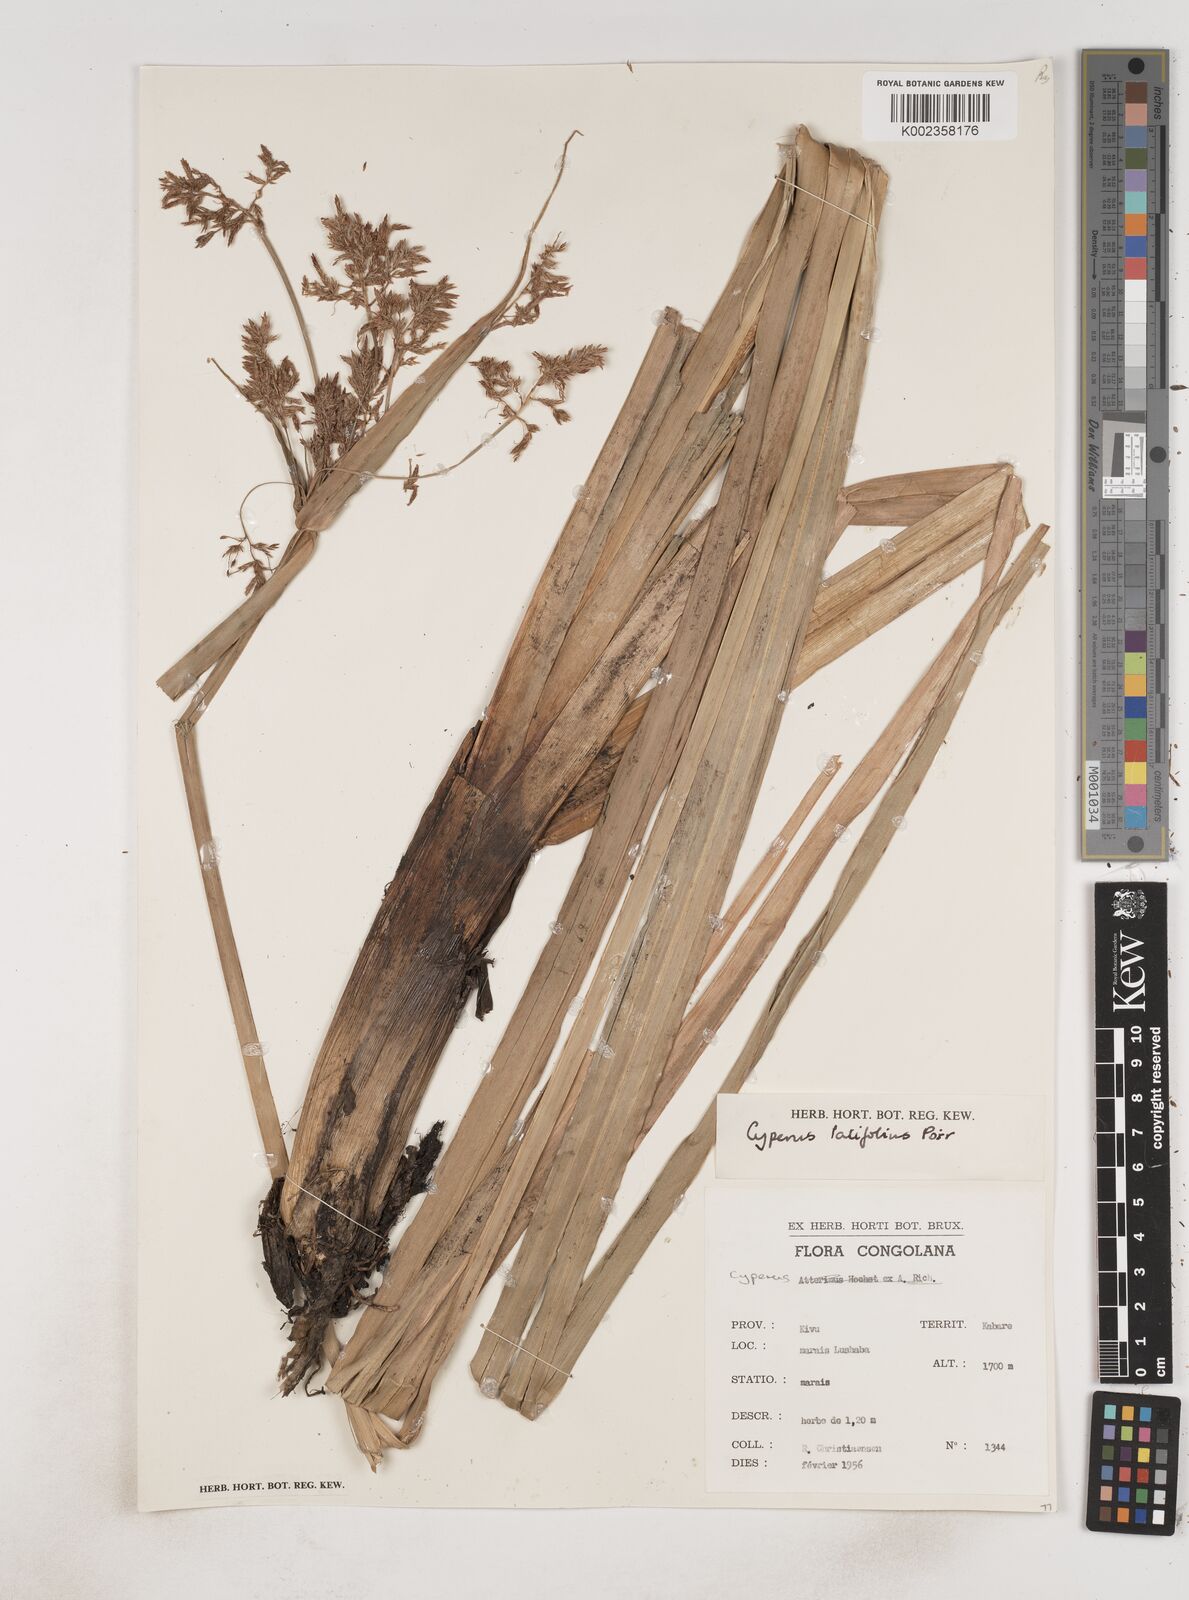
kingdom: Plantae
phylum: Tracheophyta
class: Liliopsida
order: Poales
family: Cyperaceae
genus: Cyperus
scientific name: Cyperus latifolius
